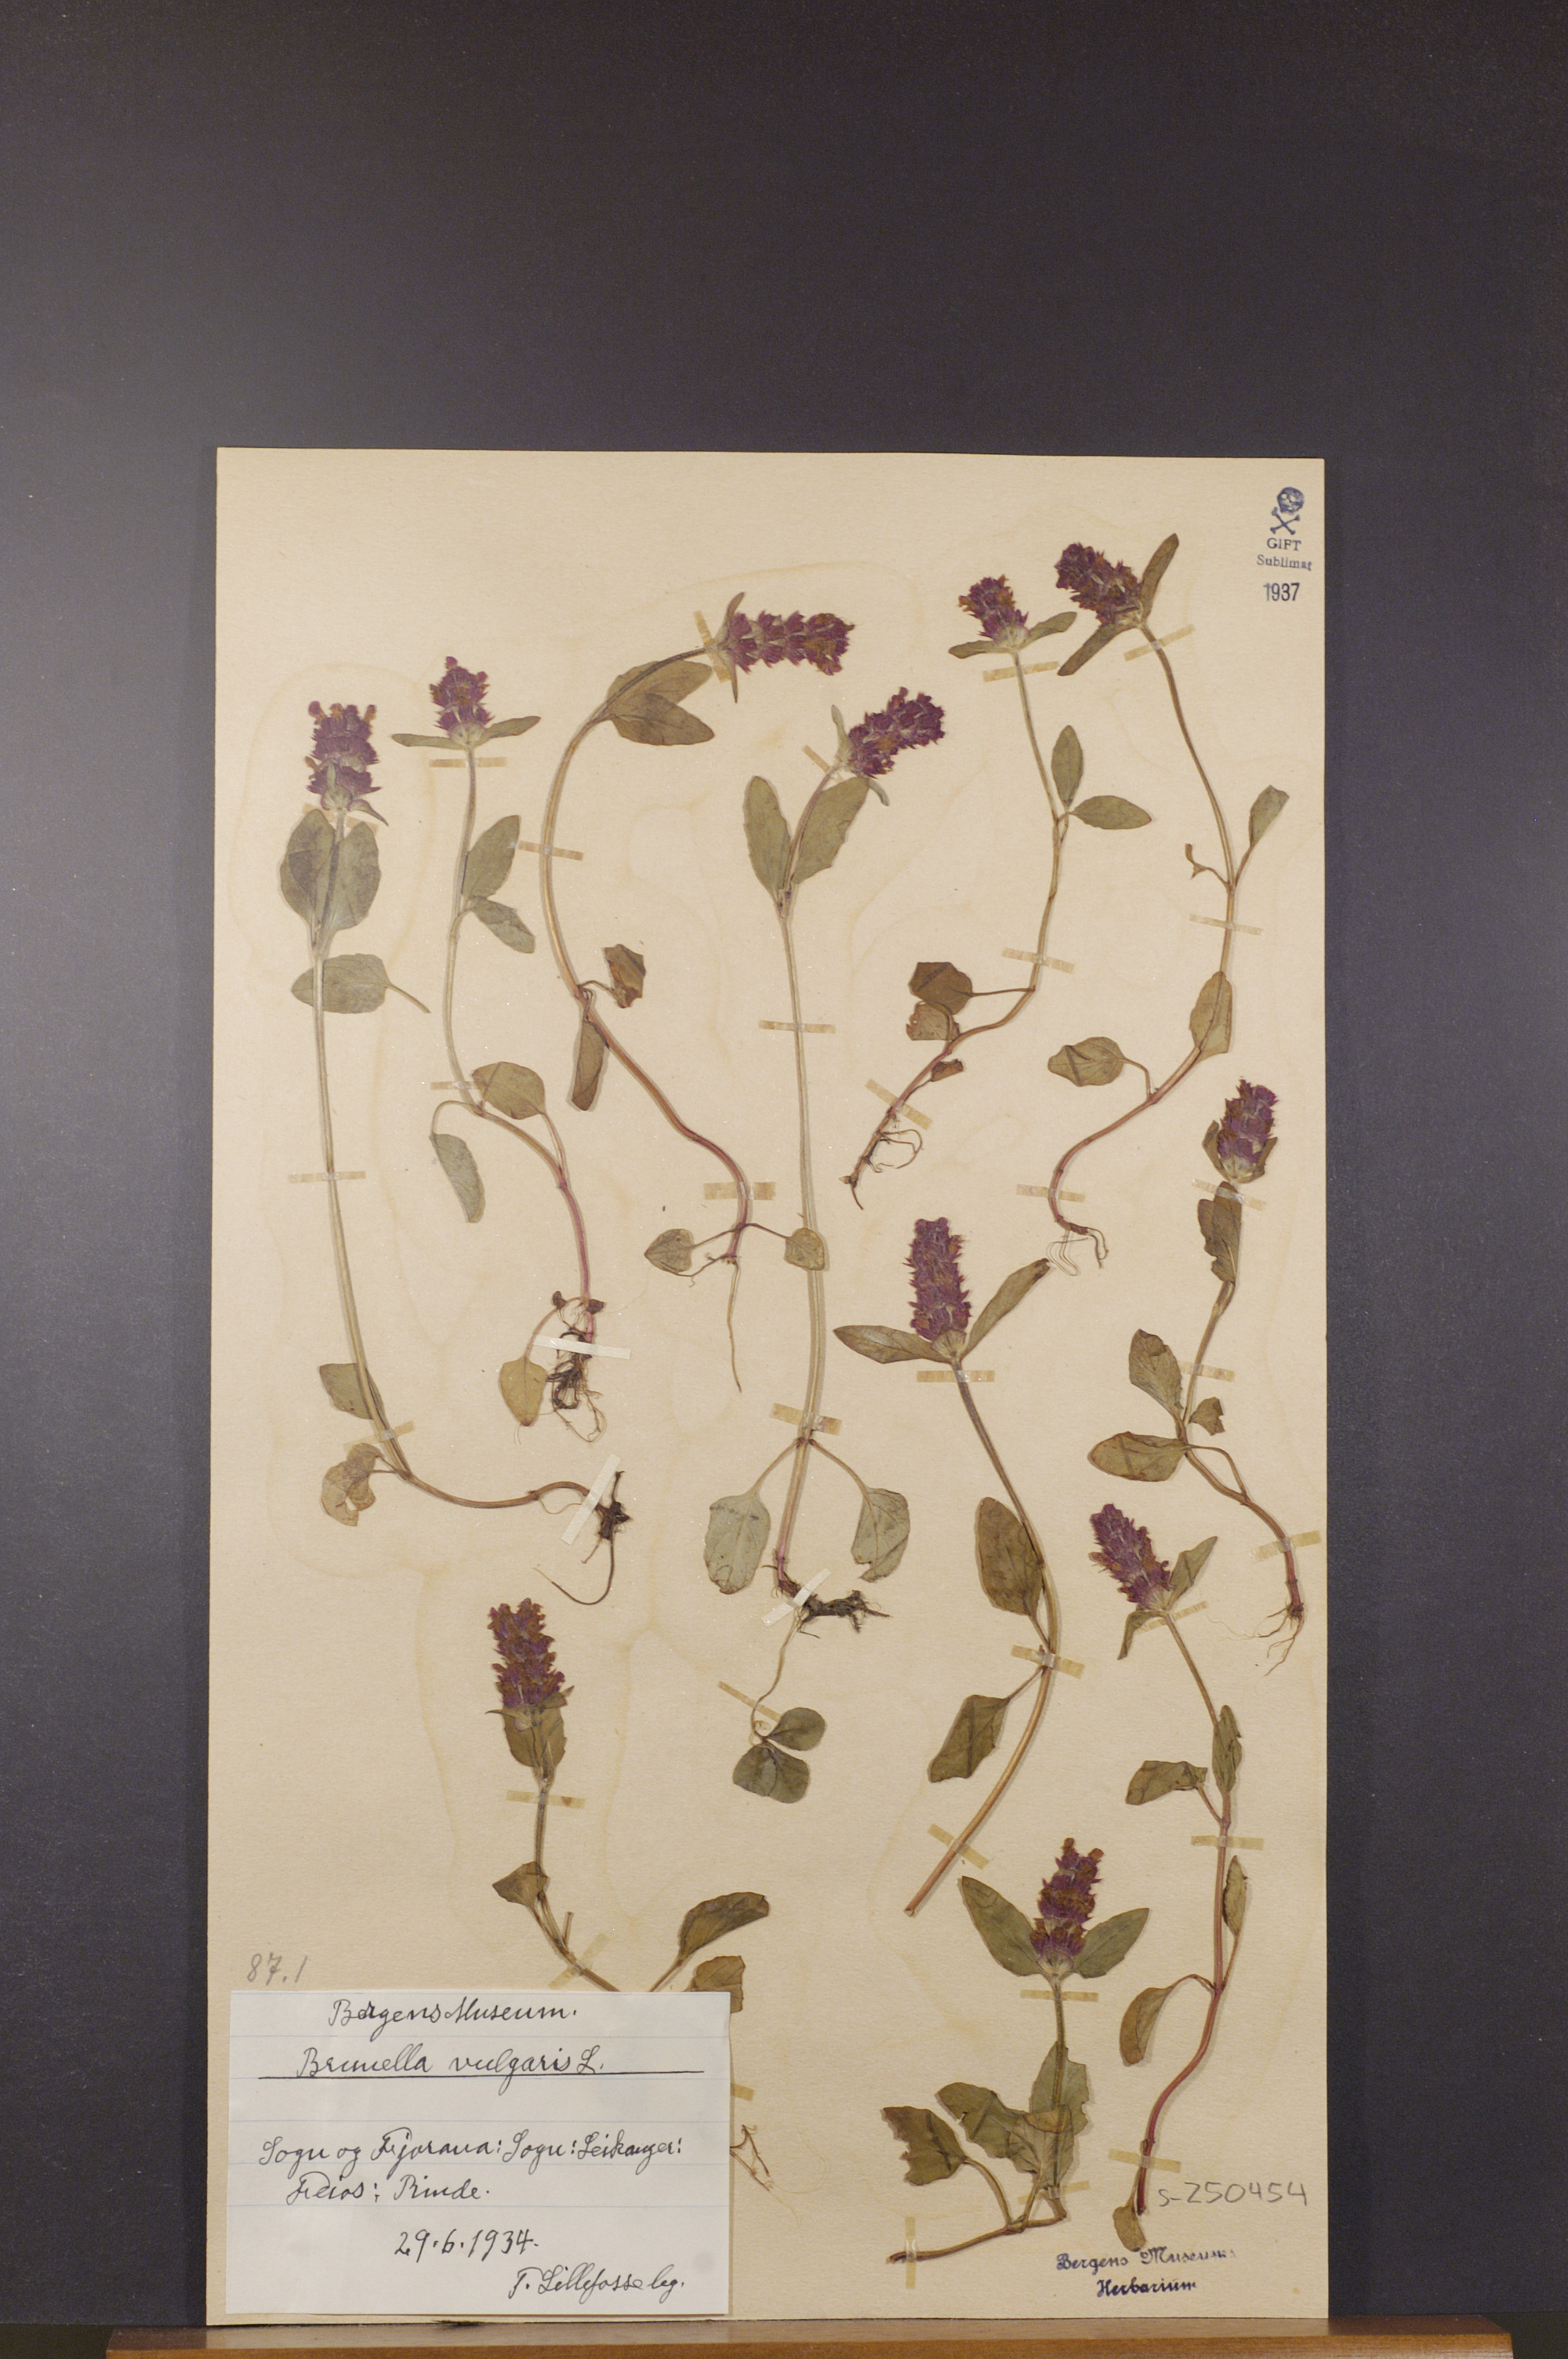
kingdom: Plantae
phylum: Tracheophyta
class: Magnoliopsida
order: Lamiales
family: Lamiaceae
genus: Prunella
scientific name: Prunella vulgaris
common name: Heal-all
